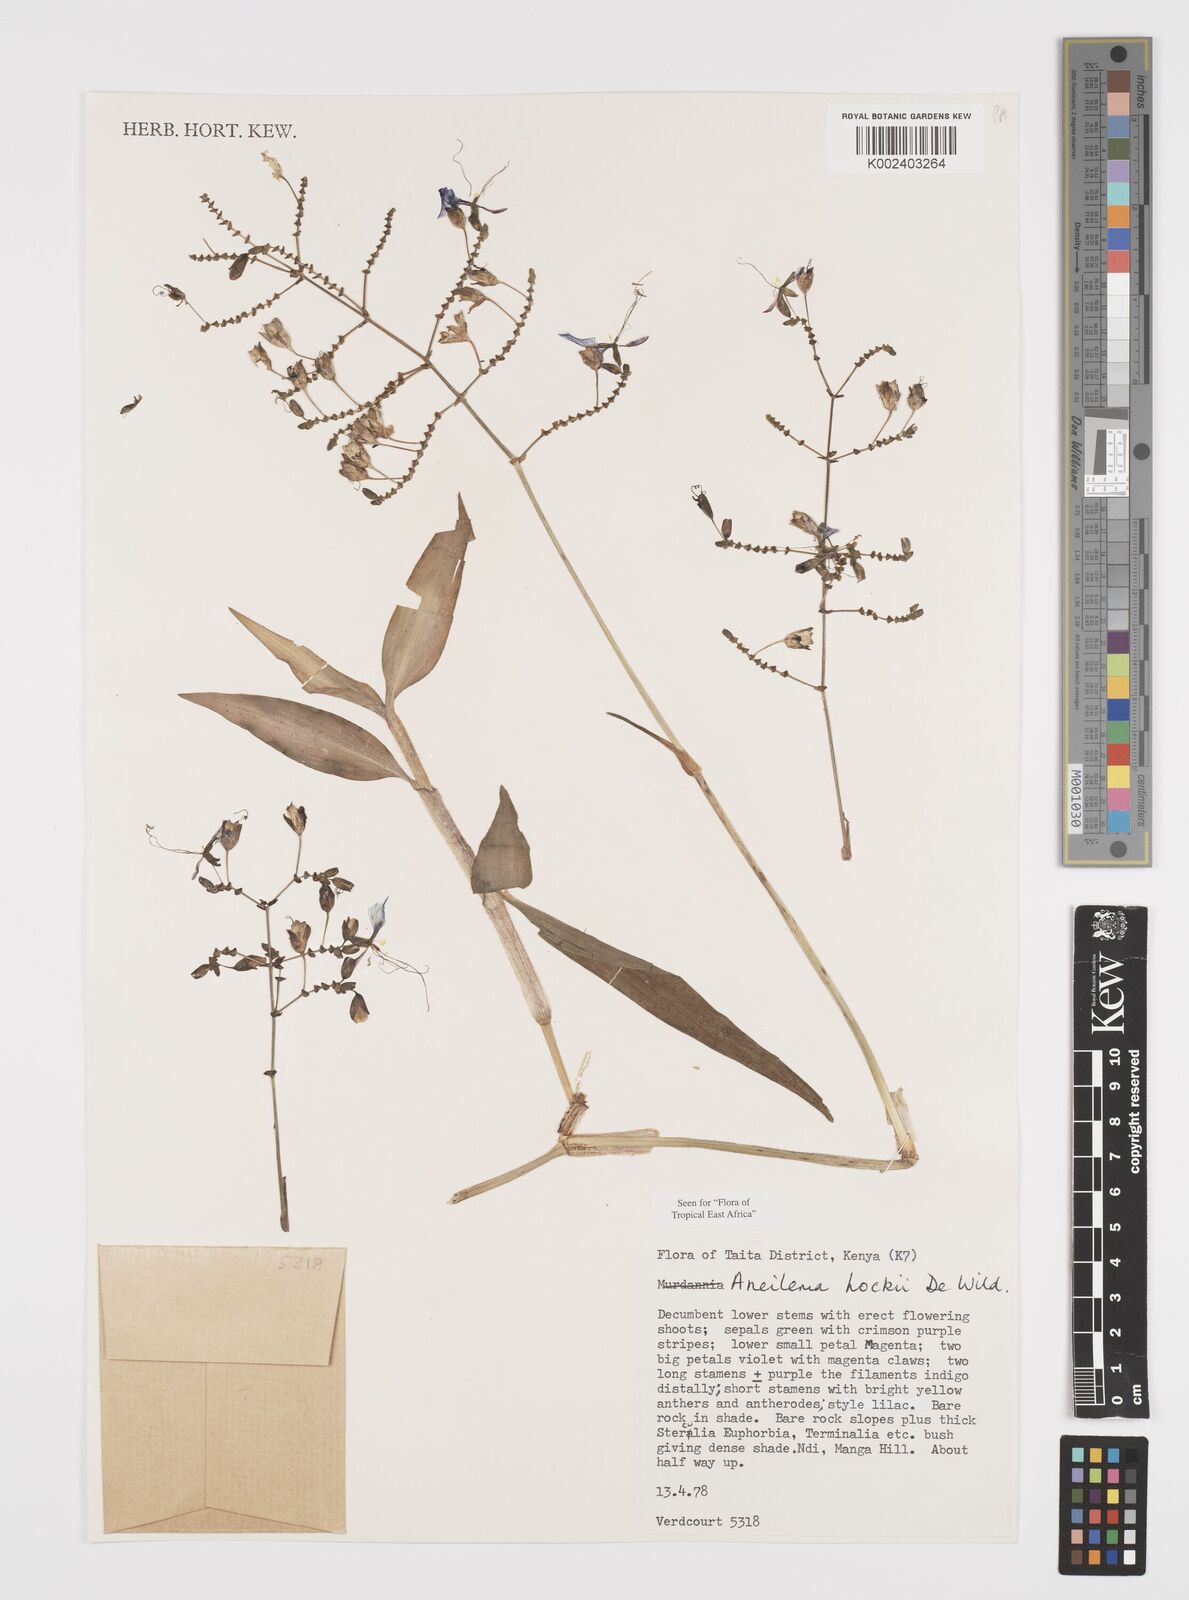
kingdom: Plantae
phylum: Tracheophyta
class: Liliopsida
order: Commelinales
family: Commelinaceae
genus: Aneilema
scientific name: Aneilema hockii
